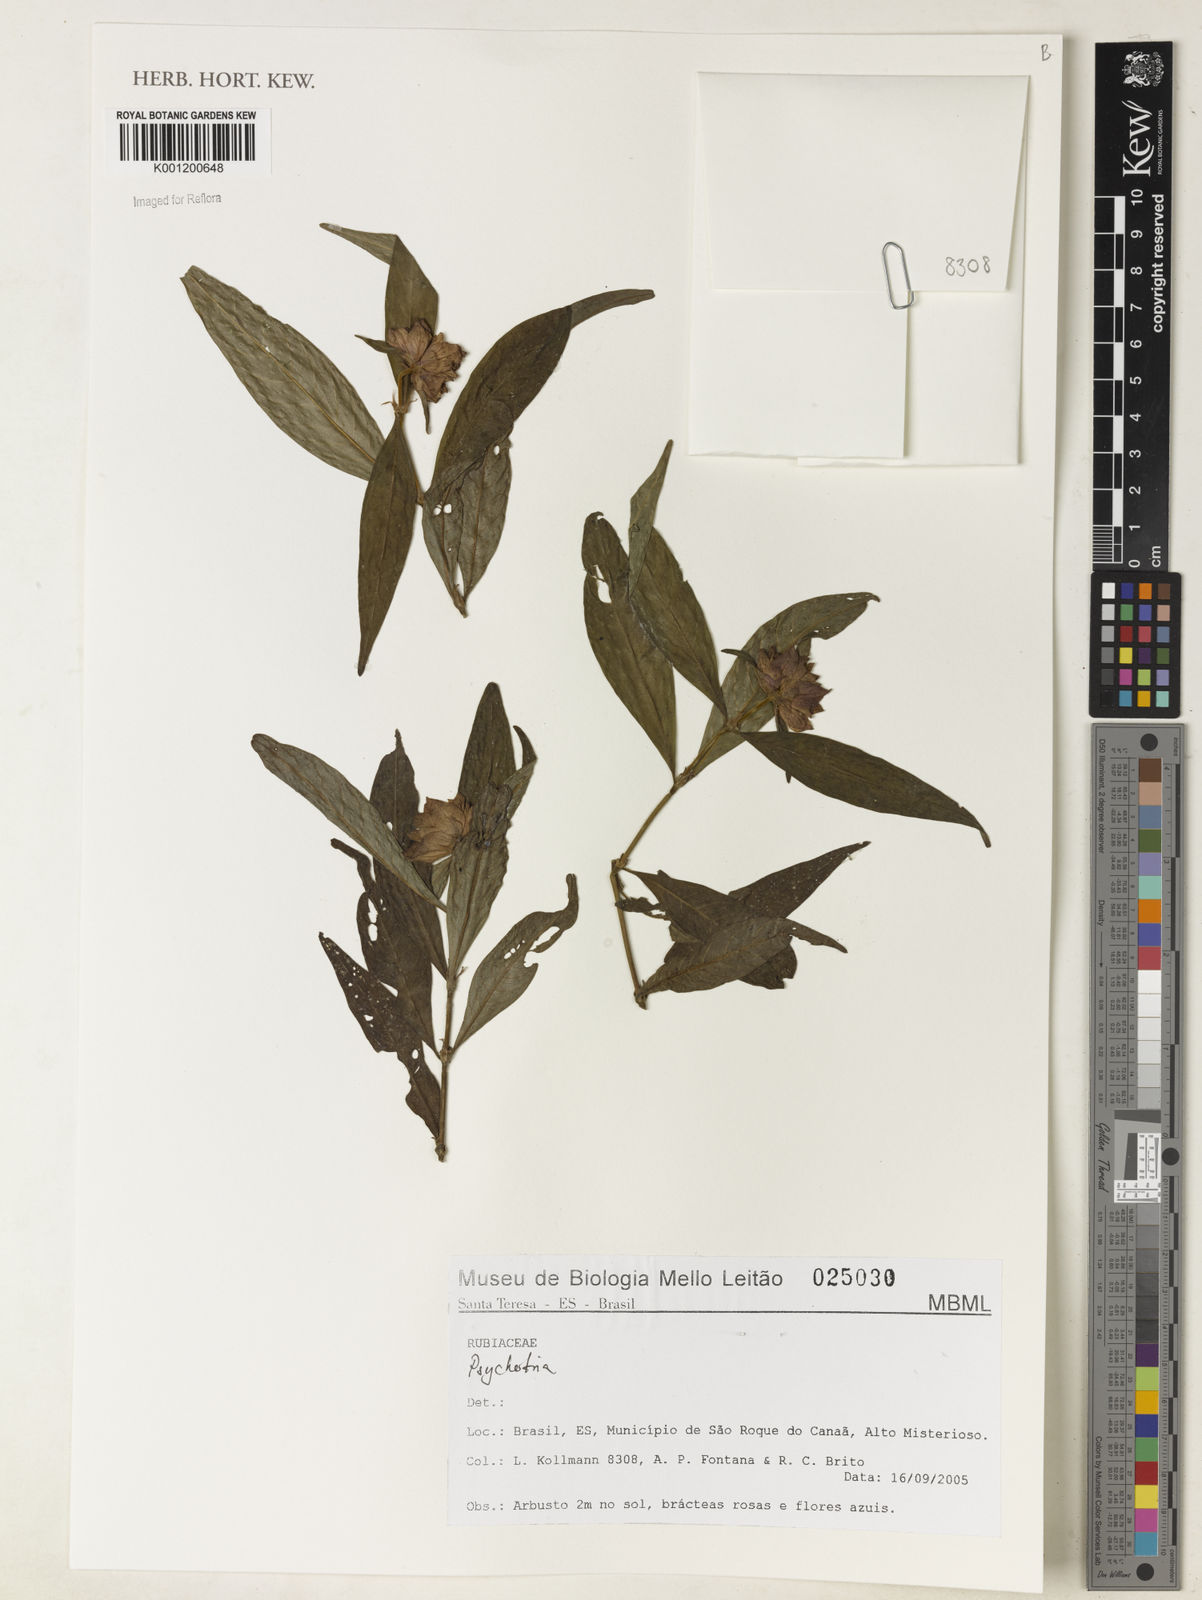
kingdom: Plantae
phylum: Tracheophyta
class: Magnoliopsida
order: Gentianales
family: Rubiaceae
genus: Psychotria
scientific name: Psychotria
